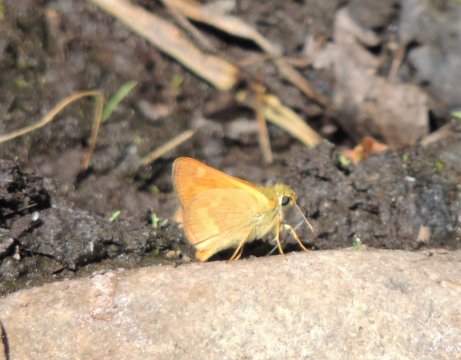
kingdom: Animalia
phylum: Arthropoda
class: Insecta
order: Lepidoptera
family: Hesperiidae
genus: Ochlodes
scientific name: Ochlodes sylvanoides
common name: Woodland Skipper
